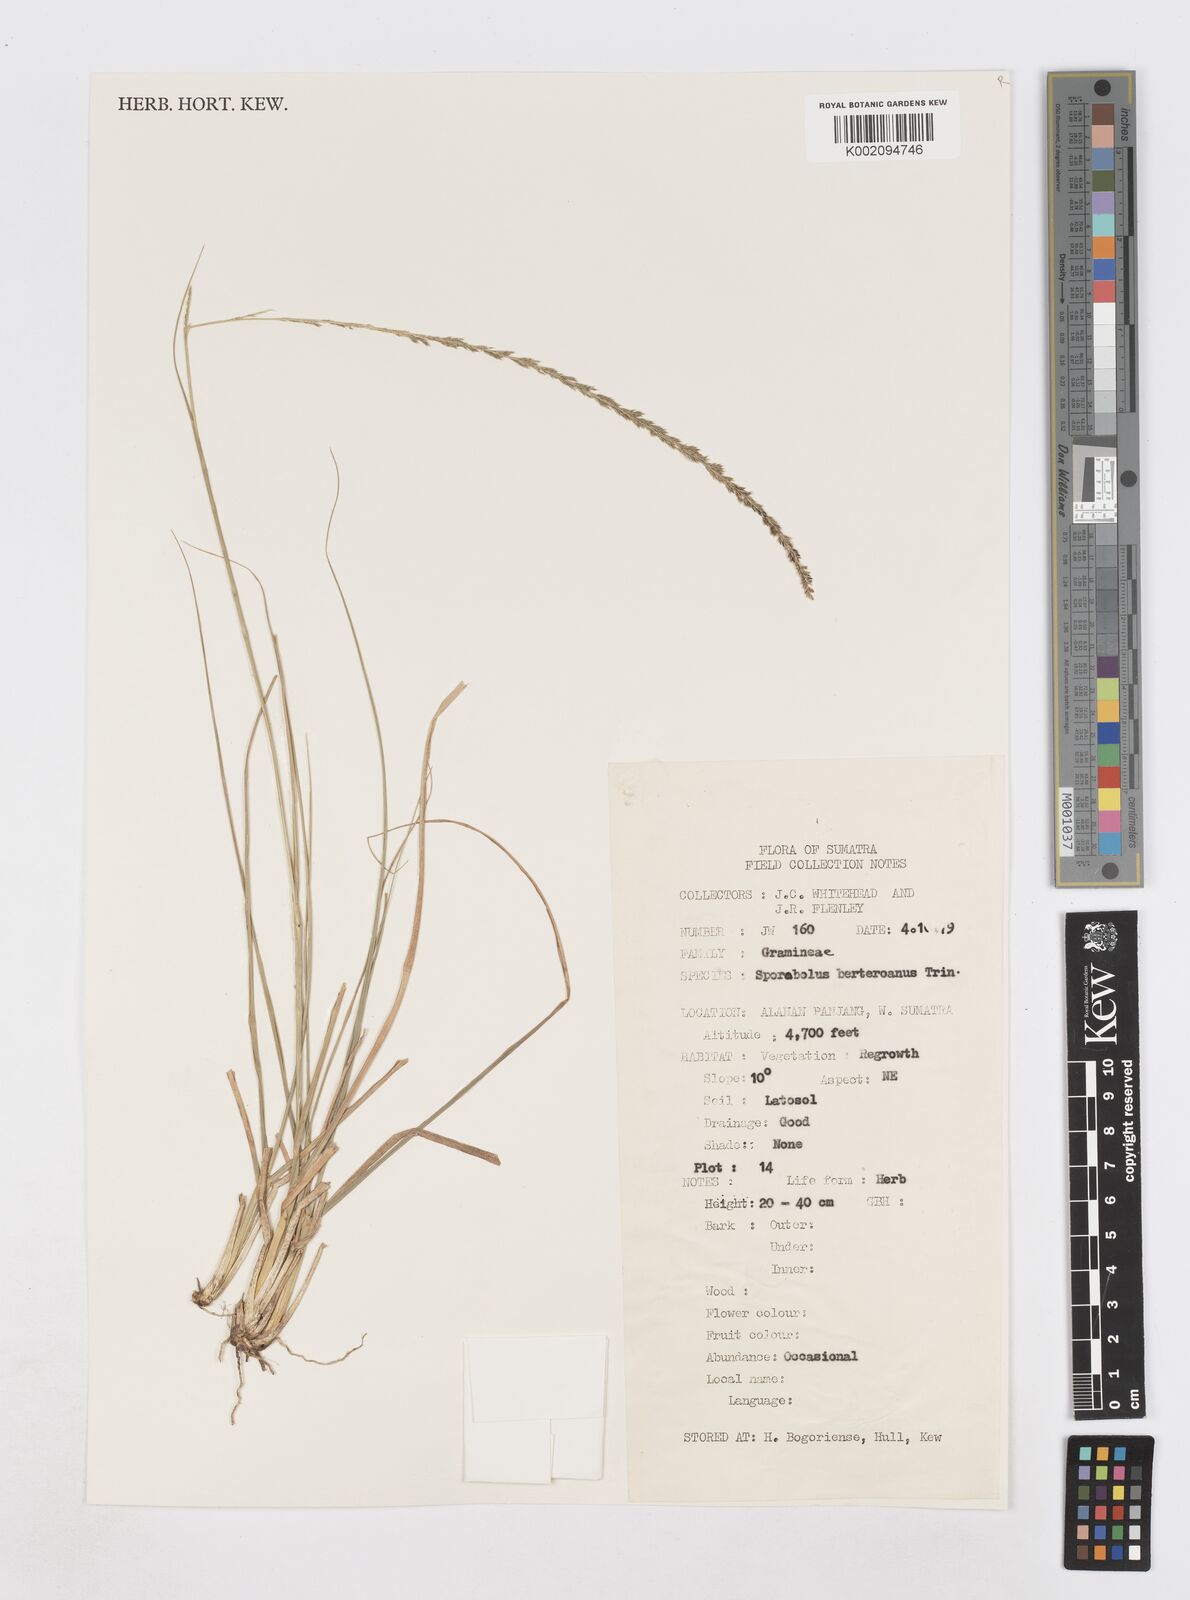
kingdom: Plantae
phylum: Tracheophyta
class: Liliopsida
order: Poales
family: Poaceae
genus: Sporobolus
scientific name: Sporobolus fertilis
